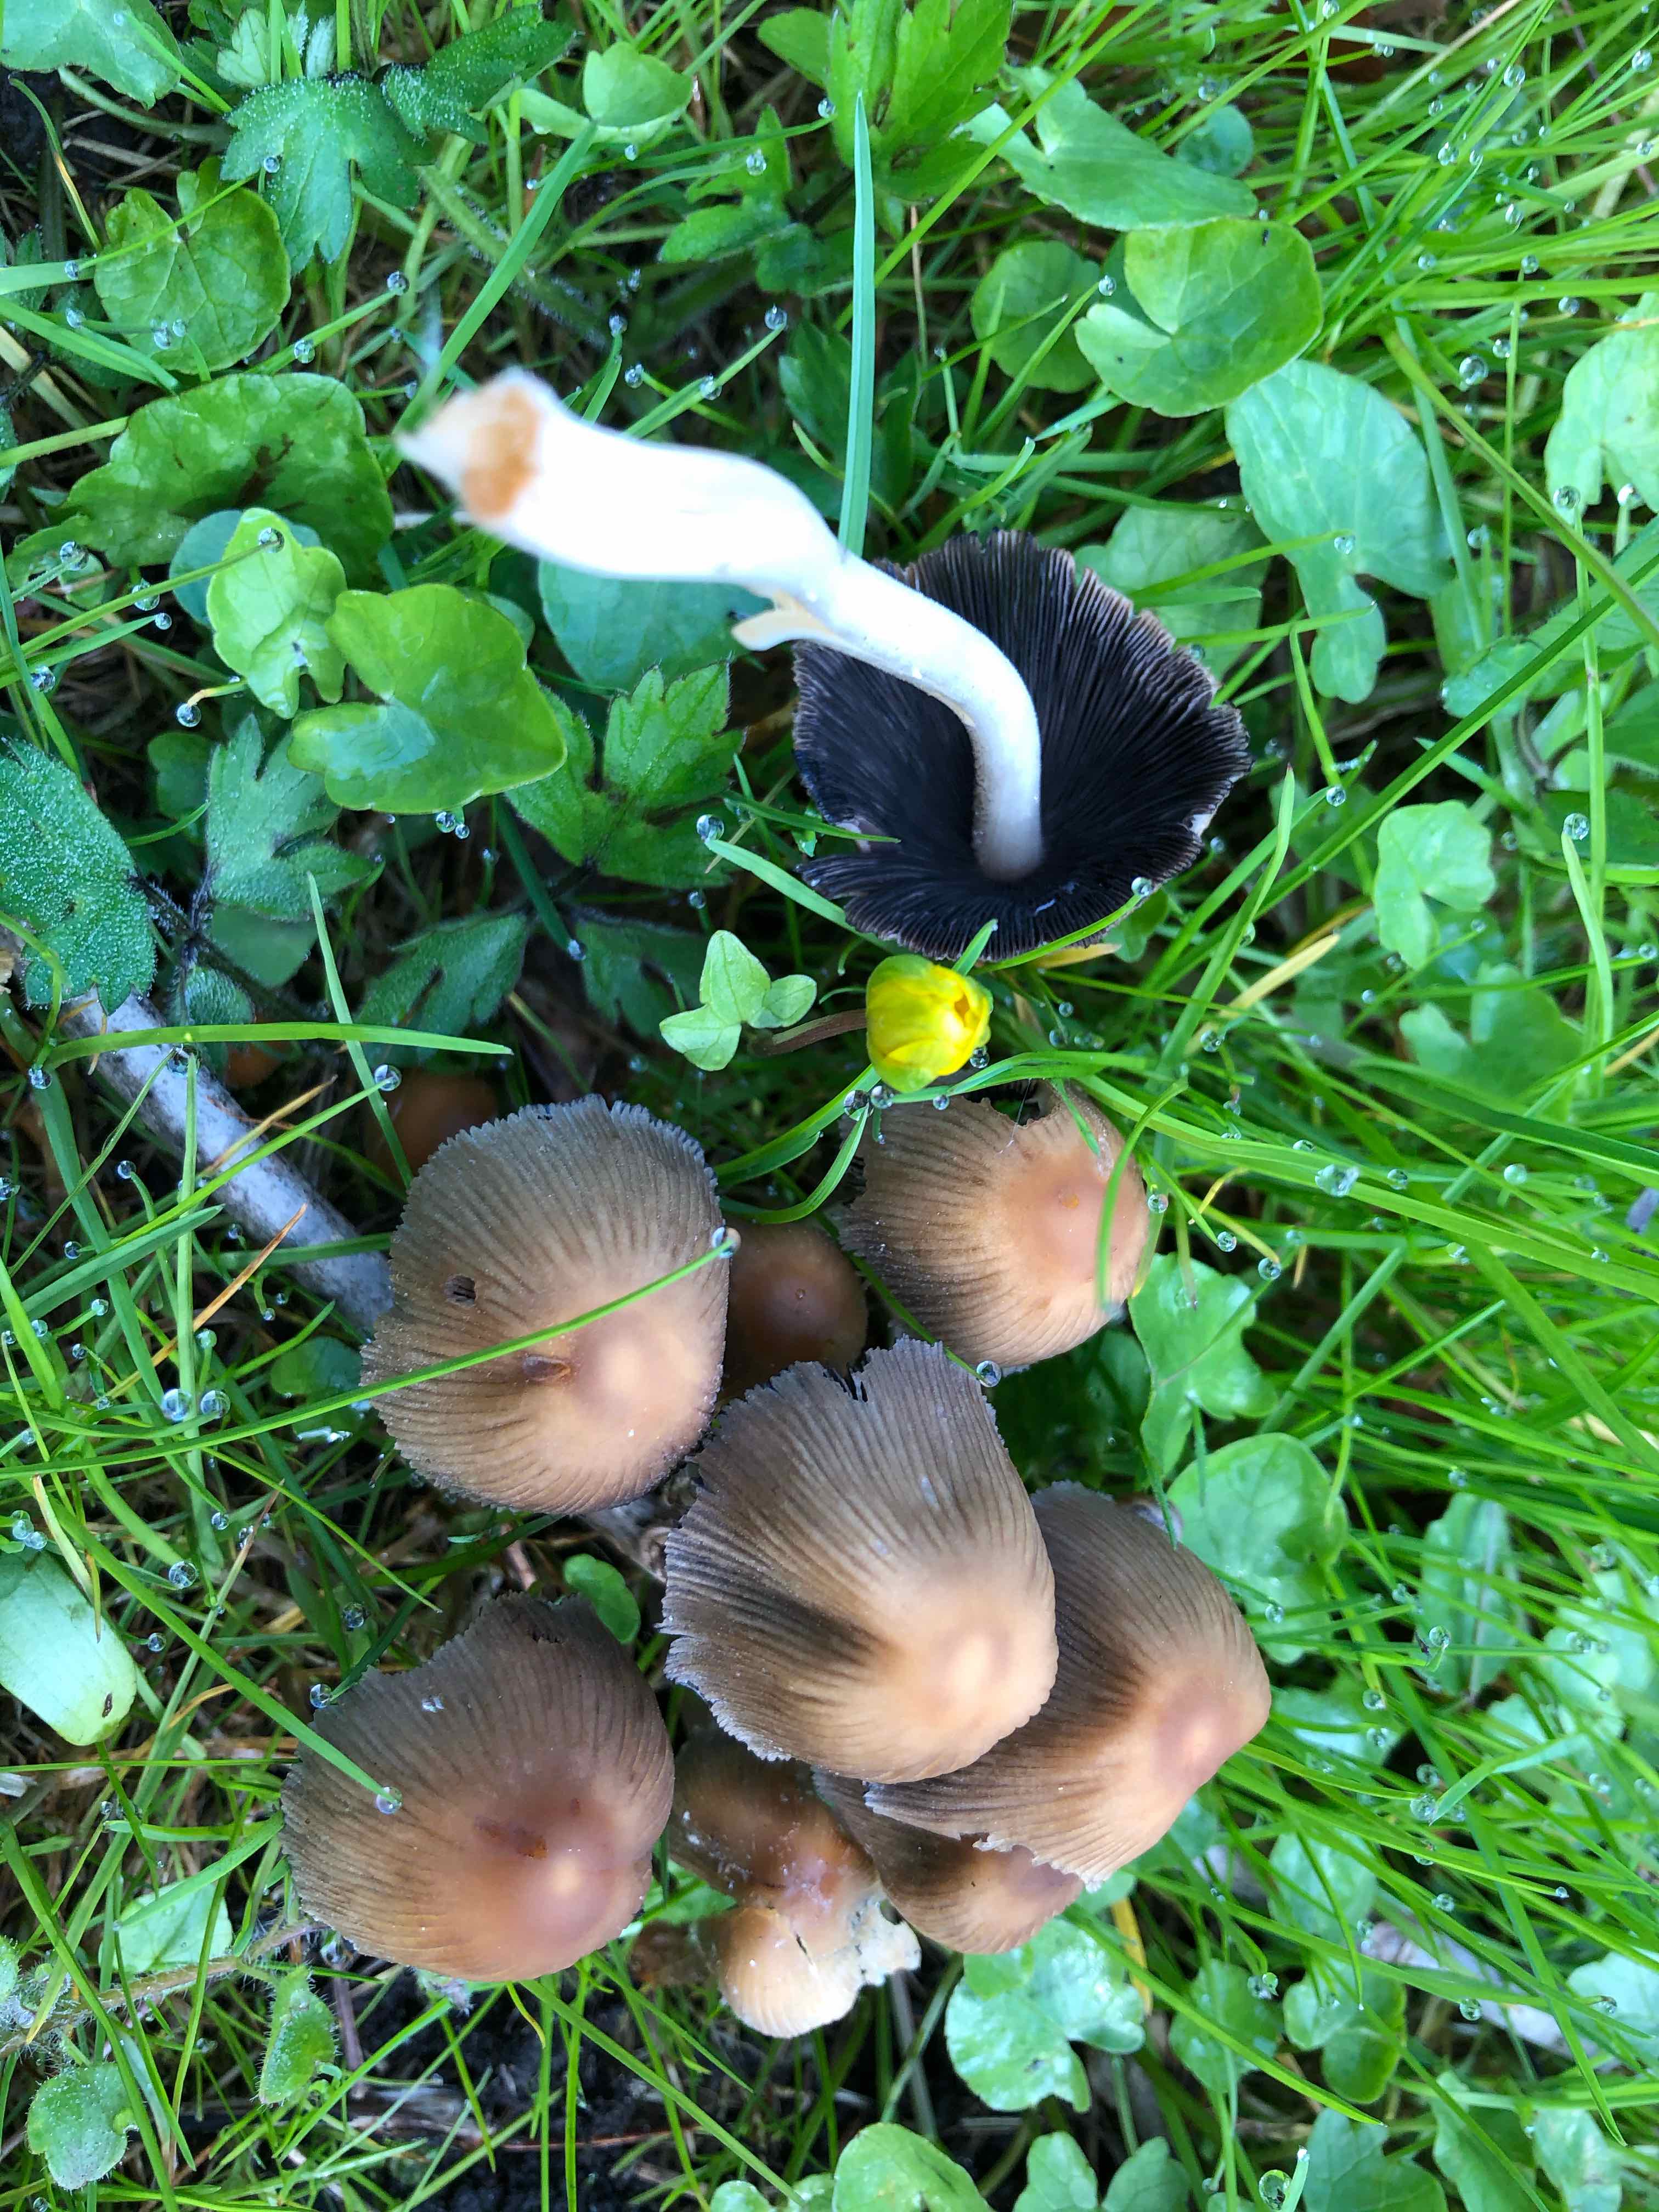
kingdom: Fungi
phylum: Basidiomycota
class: Agaricomycetes
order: Agaricales
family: Psathyrellaceae
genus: Coprinellus
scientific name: Coprinellus
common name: blækhat
